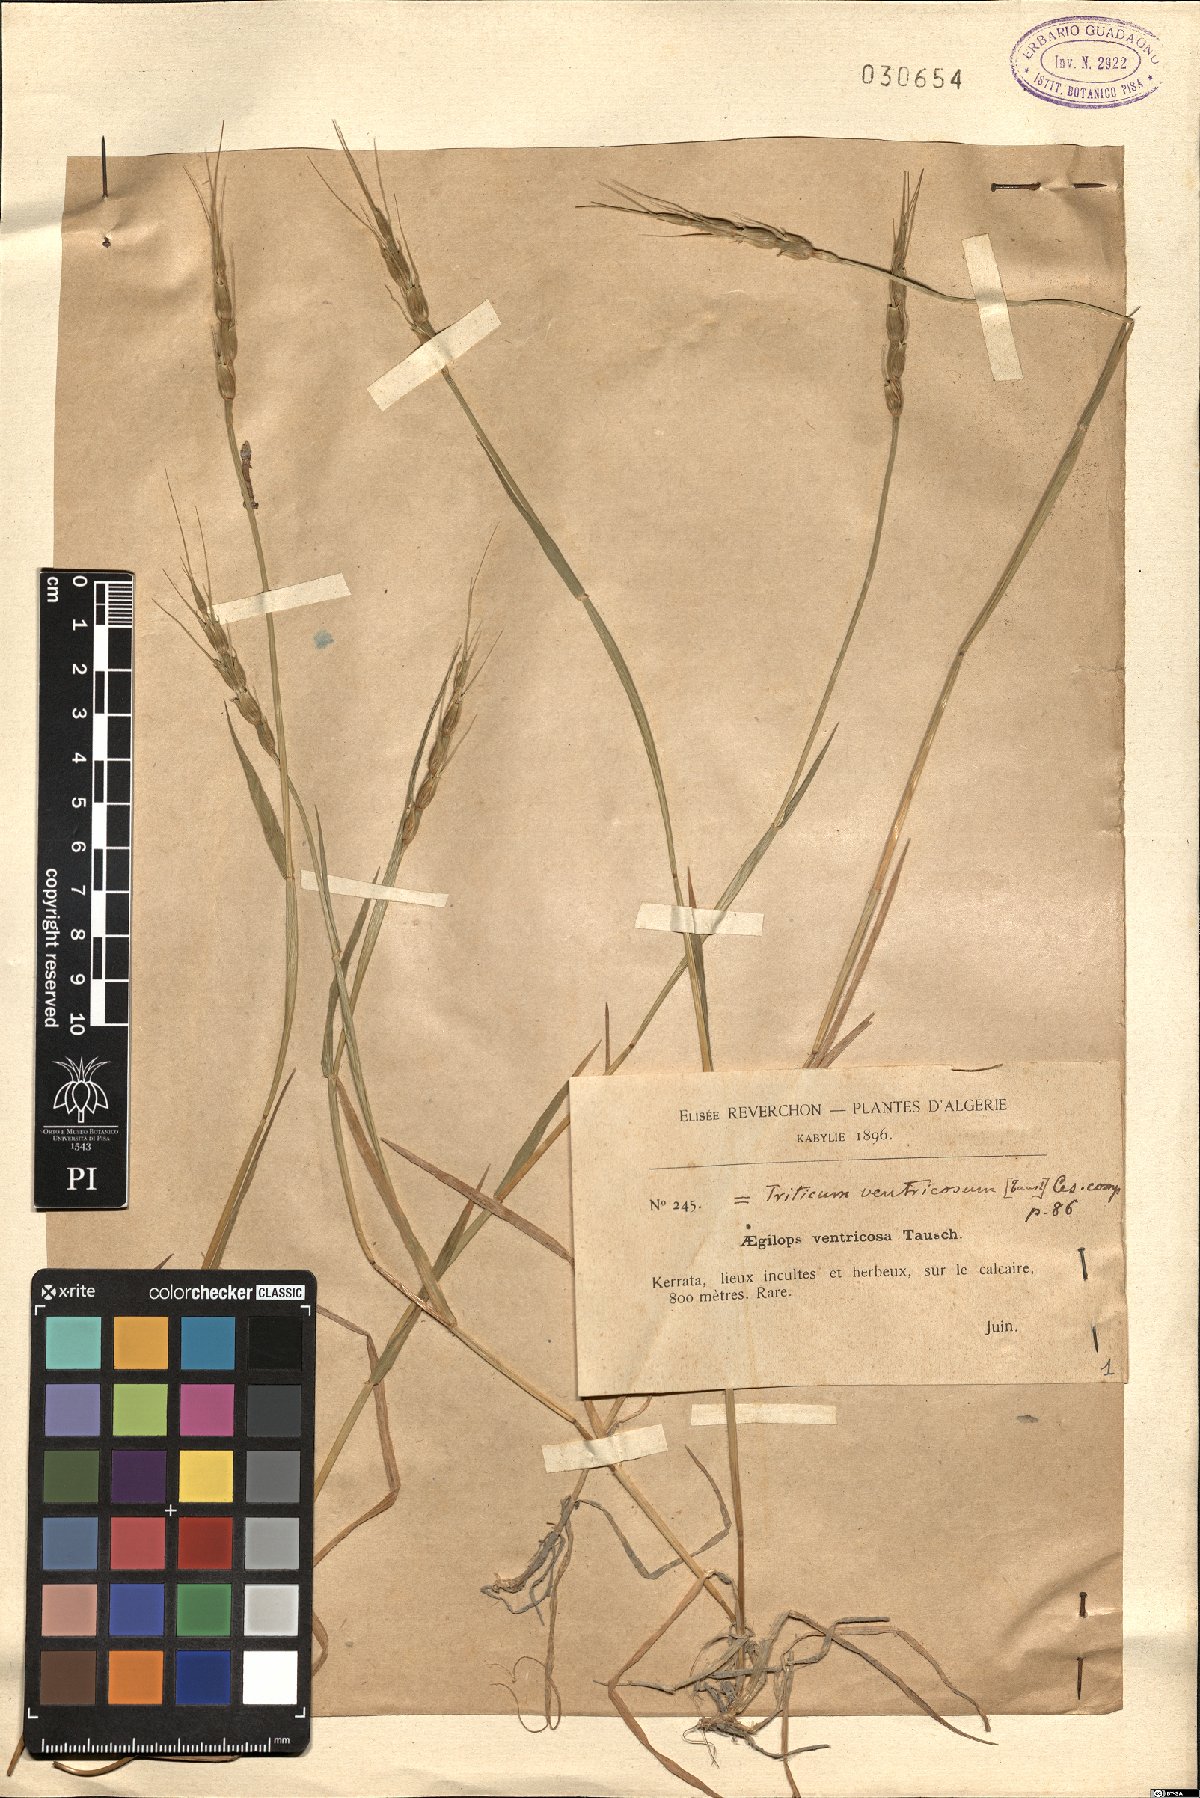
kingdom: Plantae
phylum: Tracheophyta
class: Liliopsida
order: Poales
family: Poaceae
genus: Aegilops
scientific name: Aegilops ventricosa
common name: Swollen goat grass
